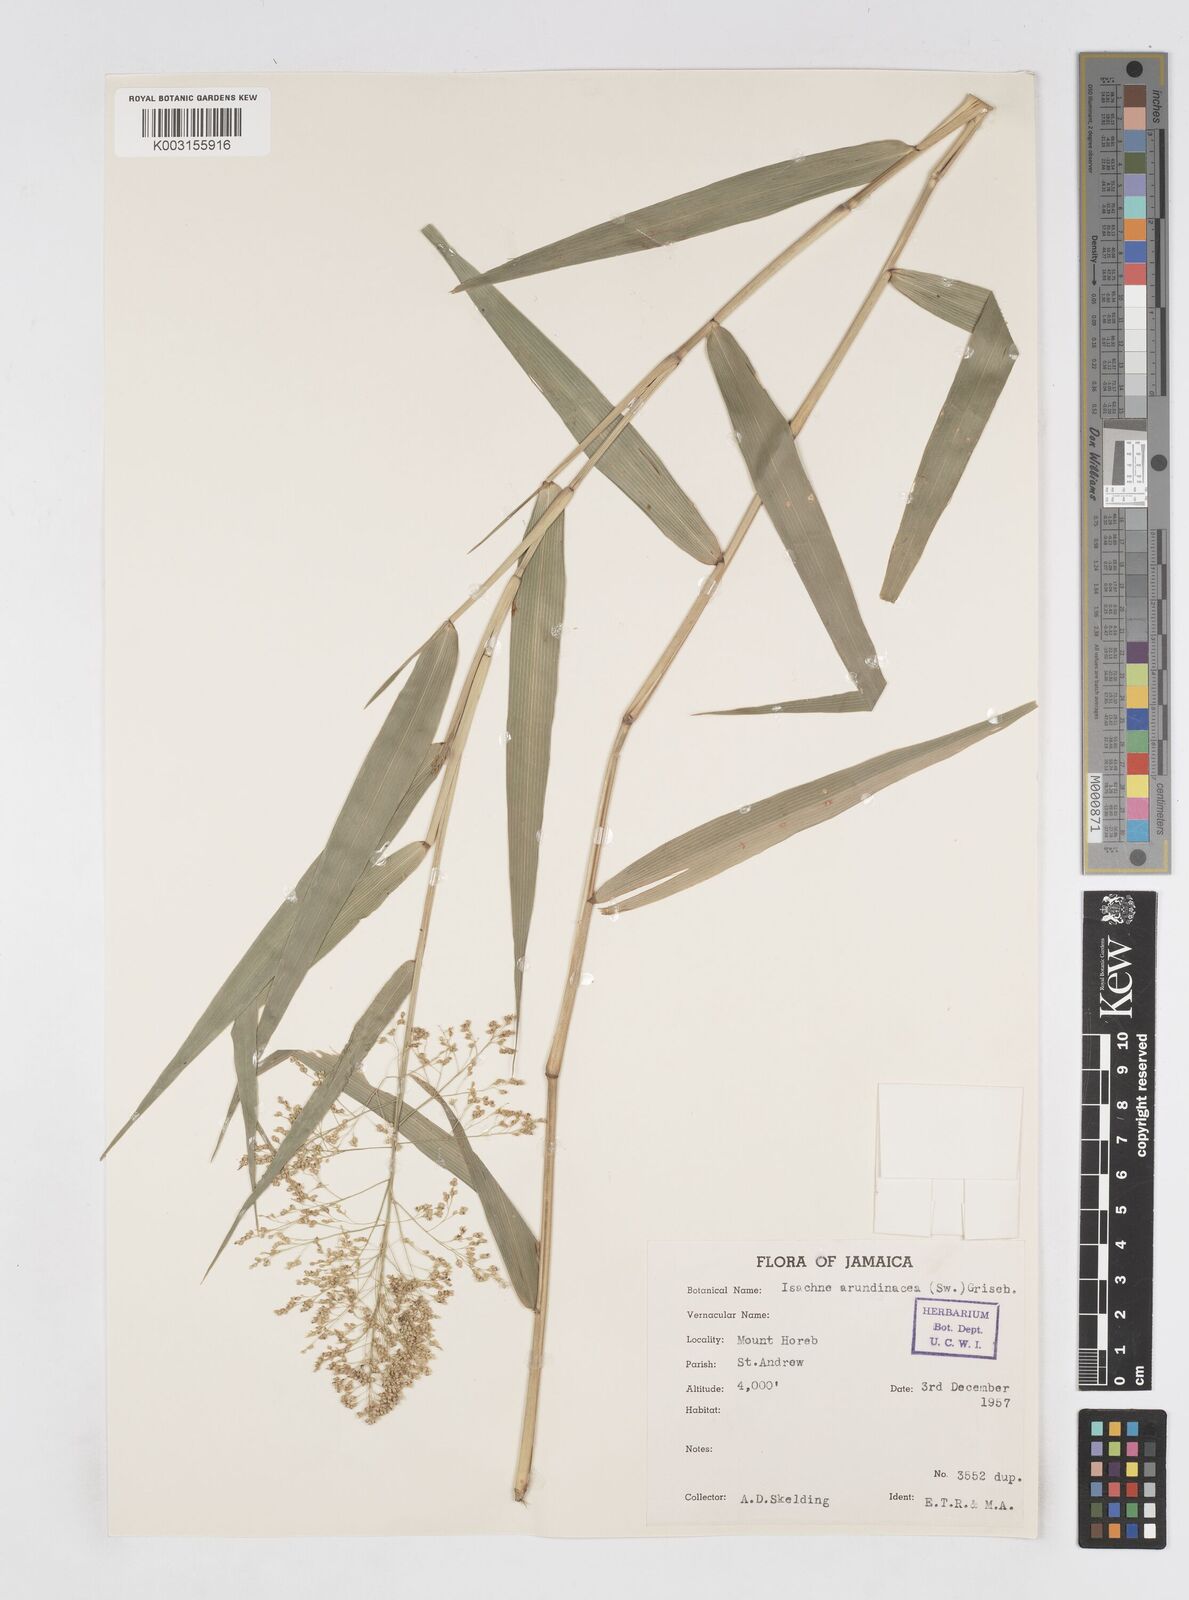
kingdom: Plantae
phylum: Tracheophyta
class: Liliopsida
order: Poales
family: Poaceae
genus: Isachne
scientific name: Isachne arundinacea
